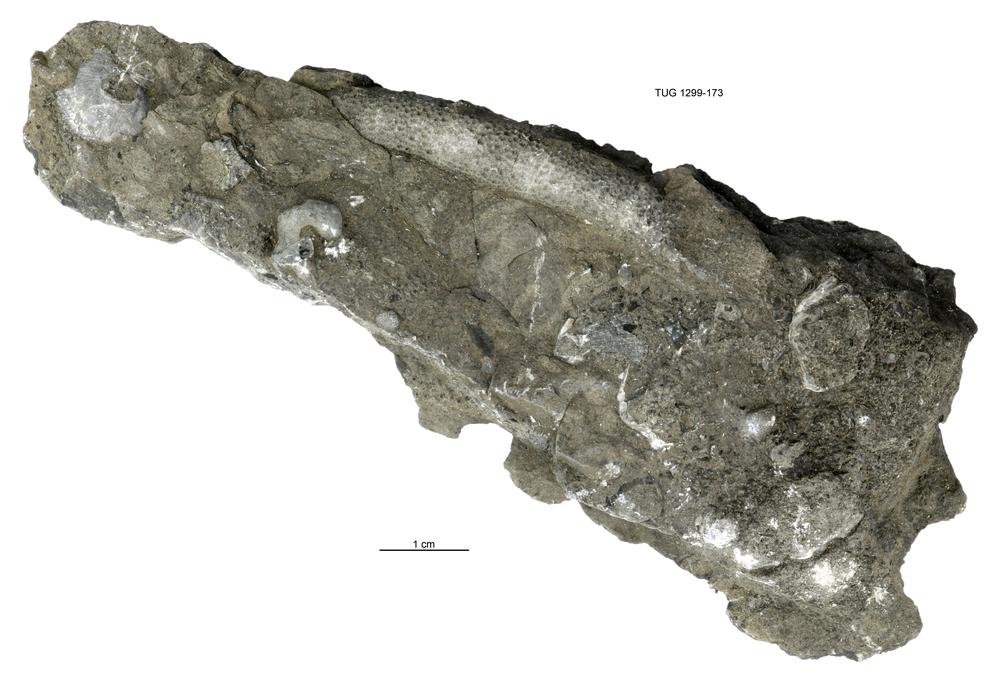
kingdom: Animalia
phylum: Bryozoa
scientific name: Bryozoa
